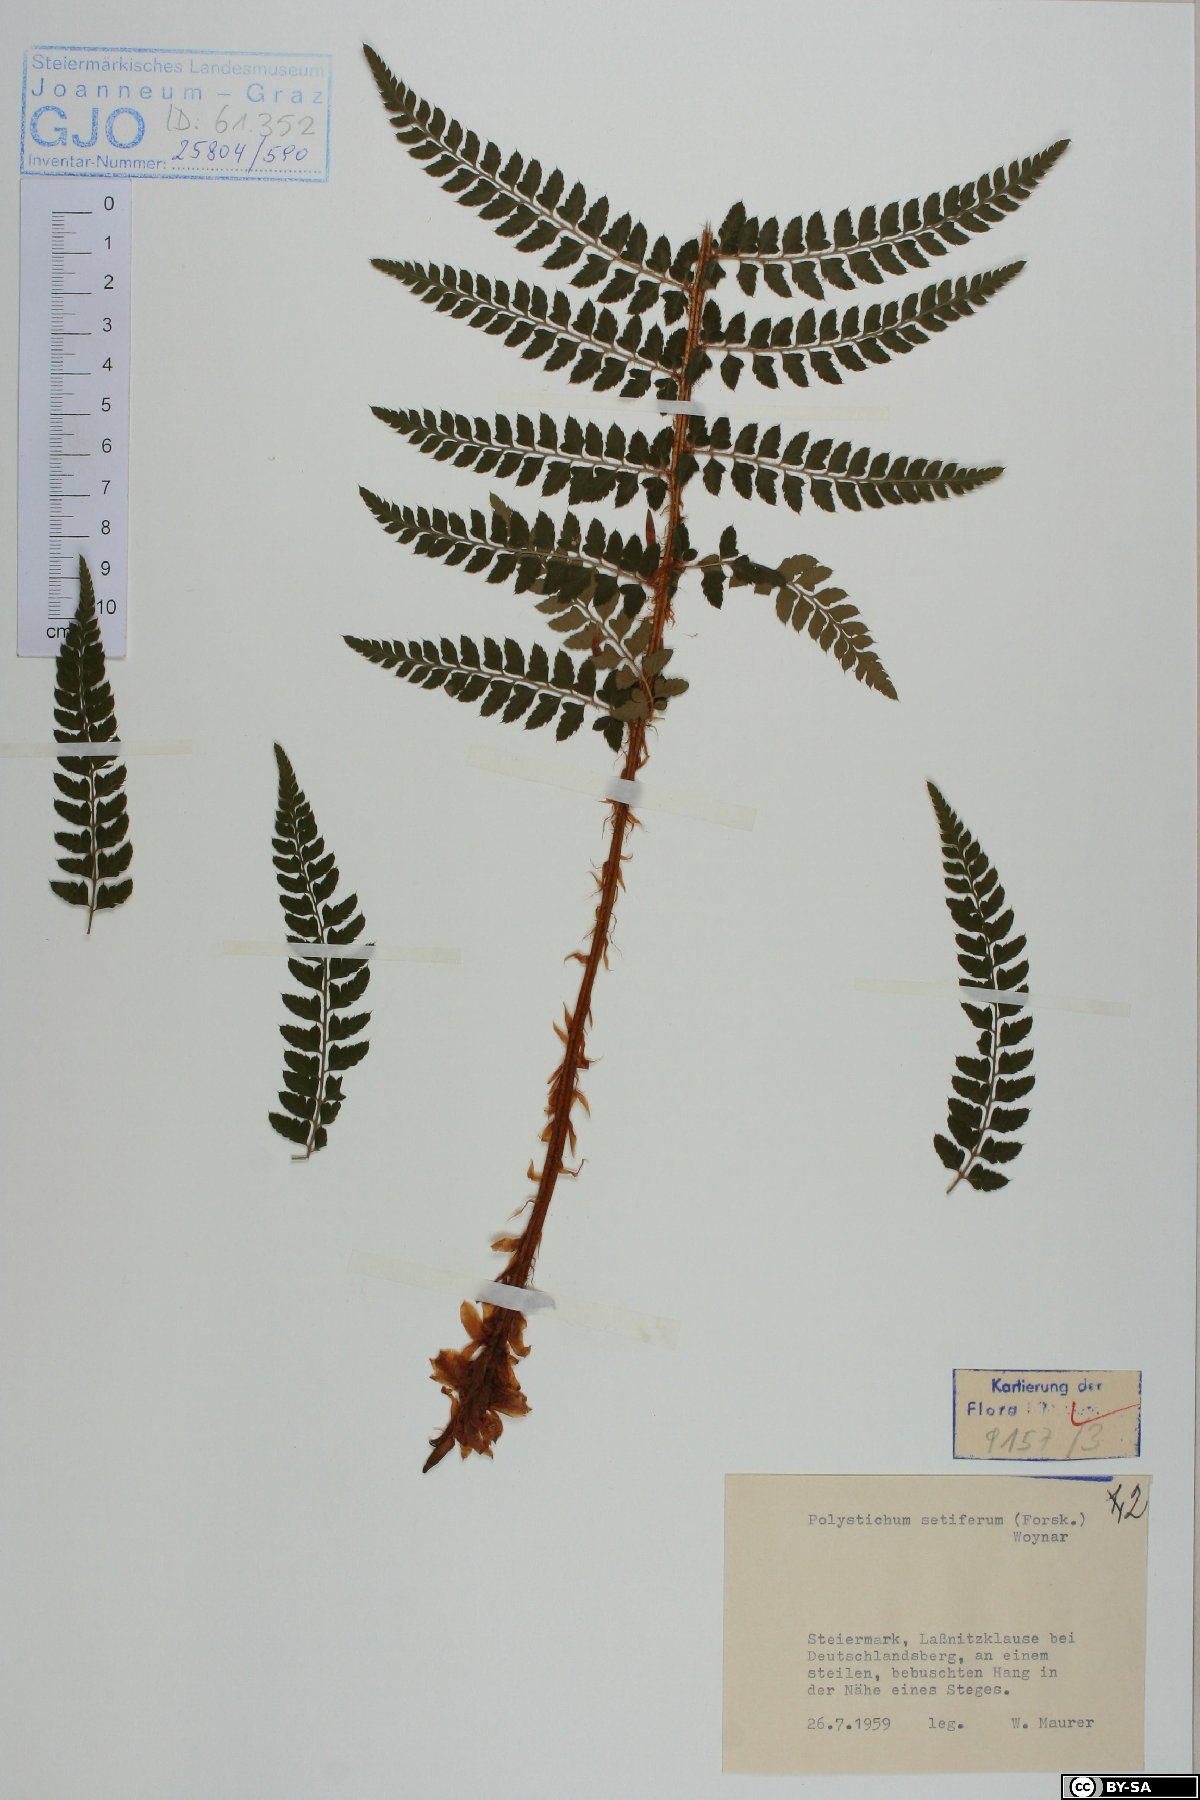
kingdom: Plantae
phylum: Tracheophyta
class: Polypodiopsida
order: Polypodiales
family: Dryopteridaceae
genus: Polystichum
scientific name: Polystichum setiferum
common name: Soft shield-fern
